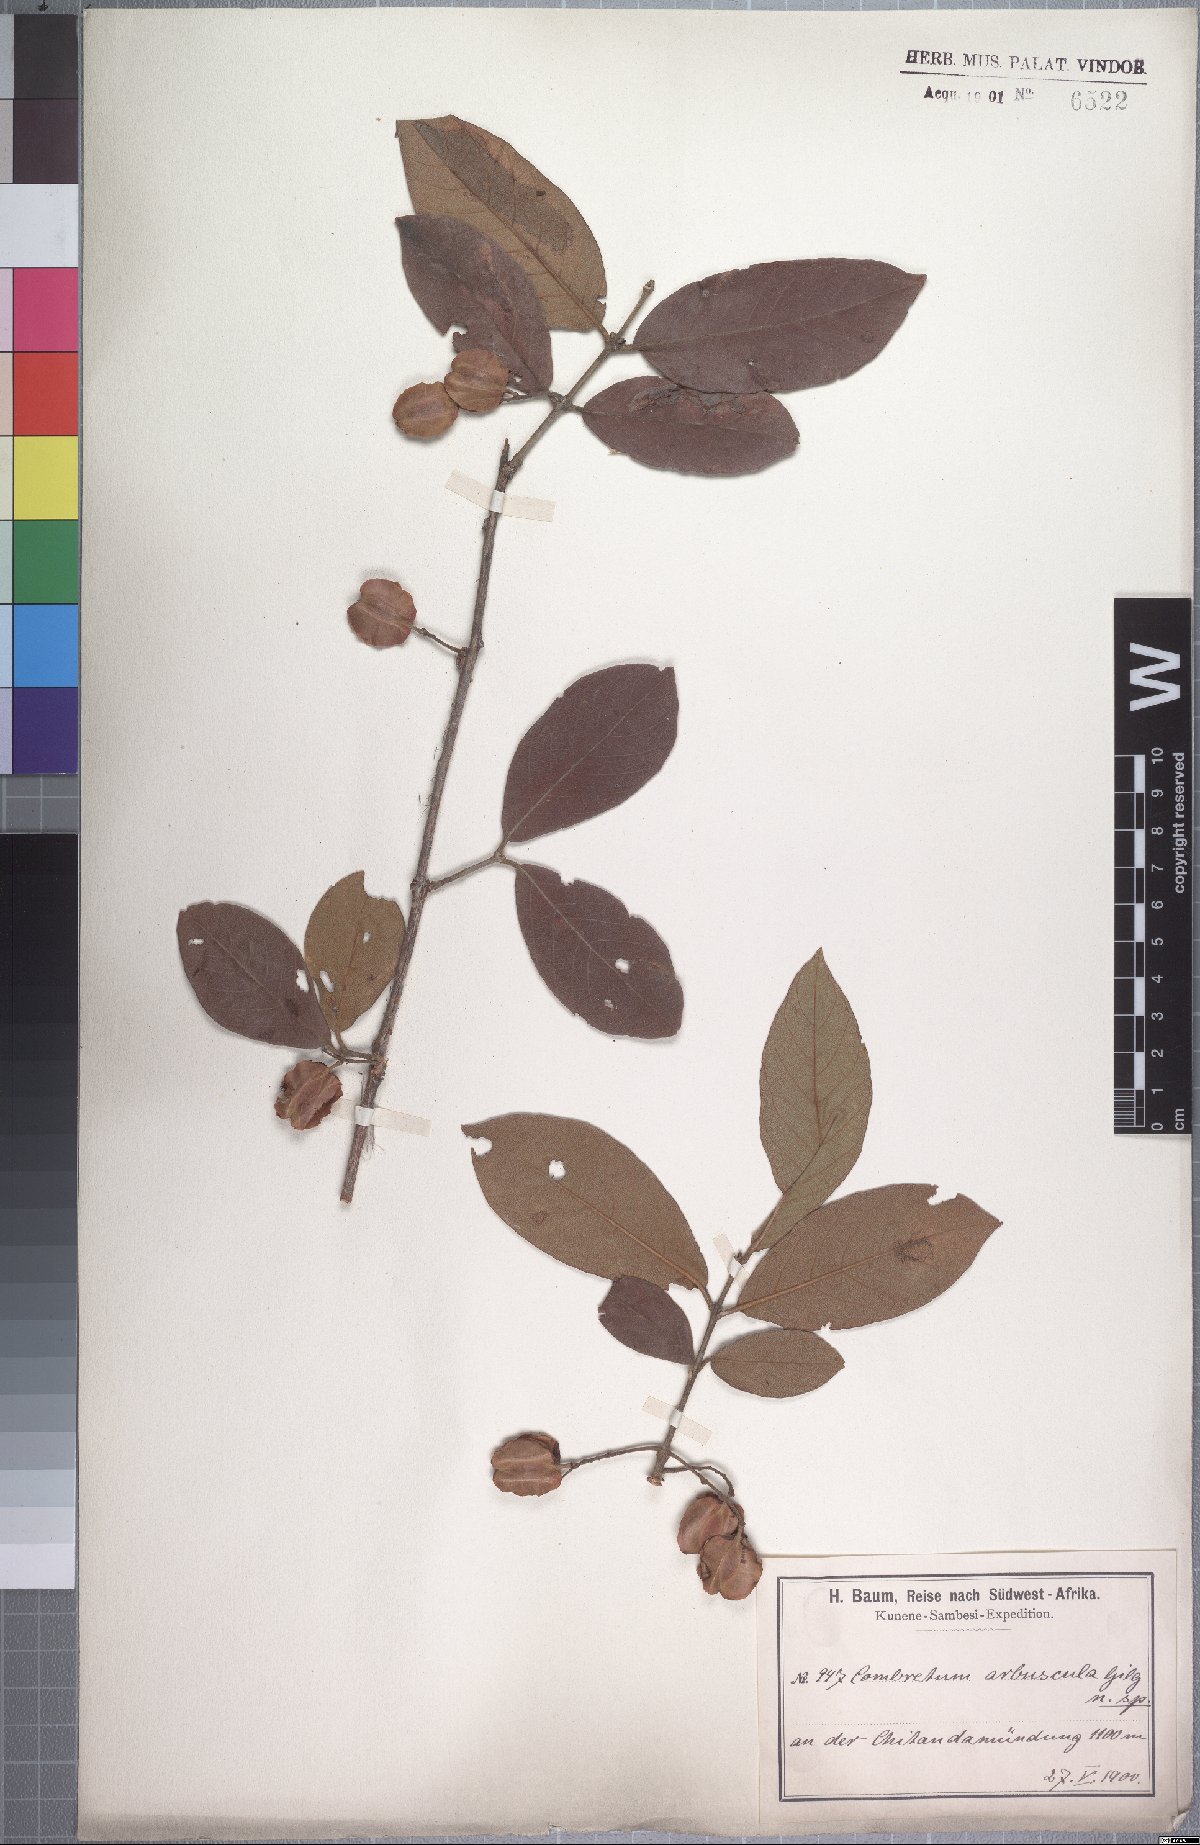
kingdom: Plantae
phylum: Tracheophyta
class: Magnoliopsida
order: Myrtales
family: Combretaceae
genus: Combretum
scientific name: Combretum molle
